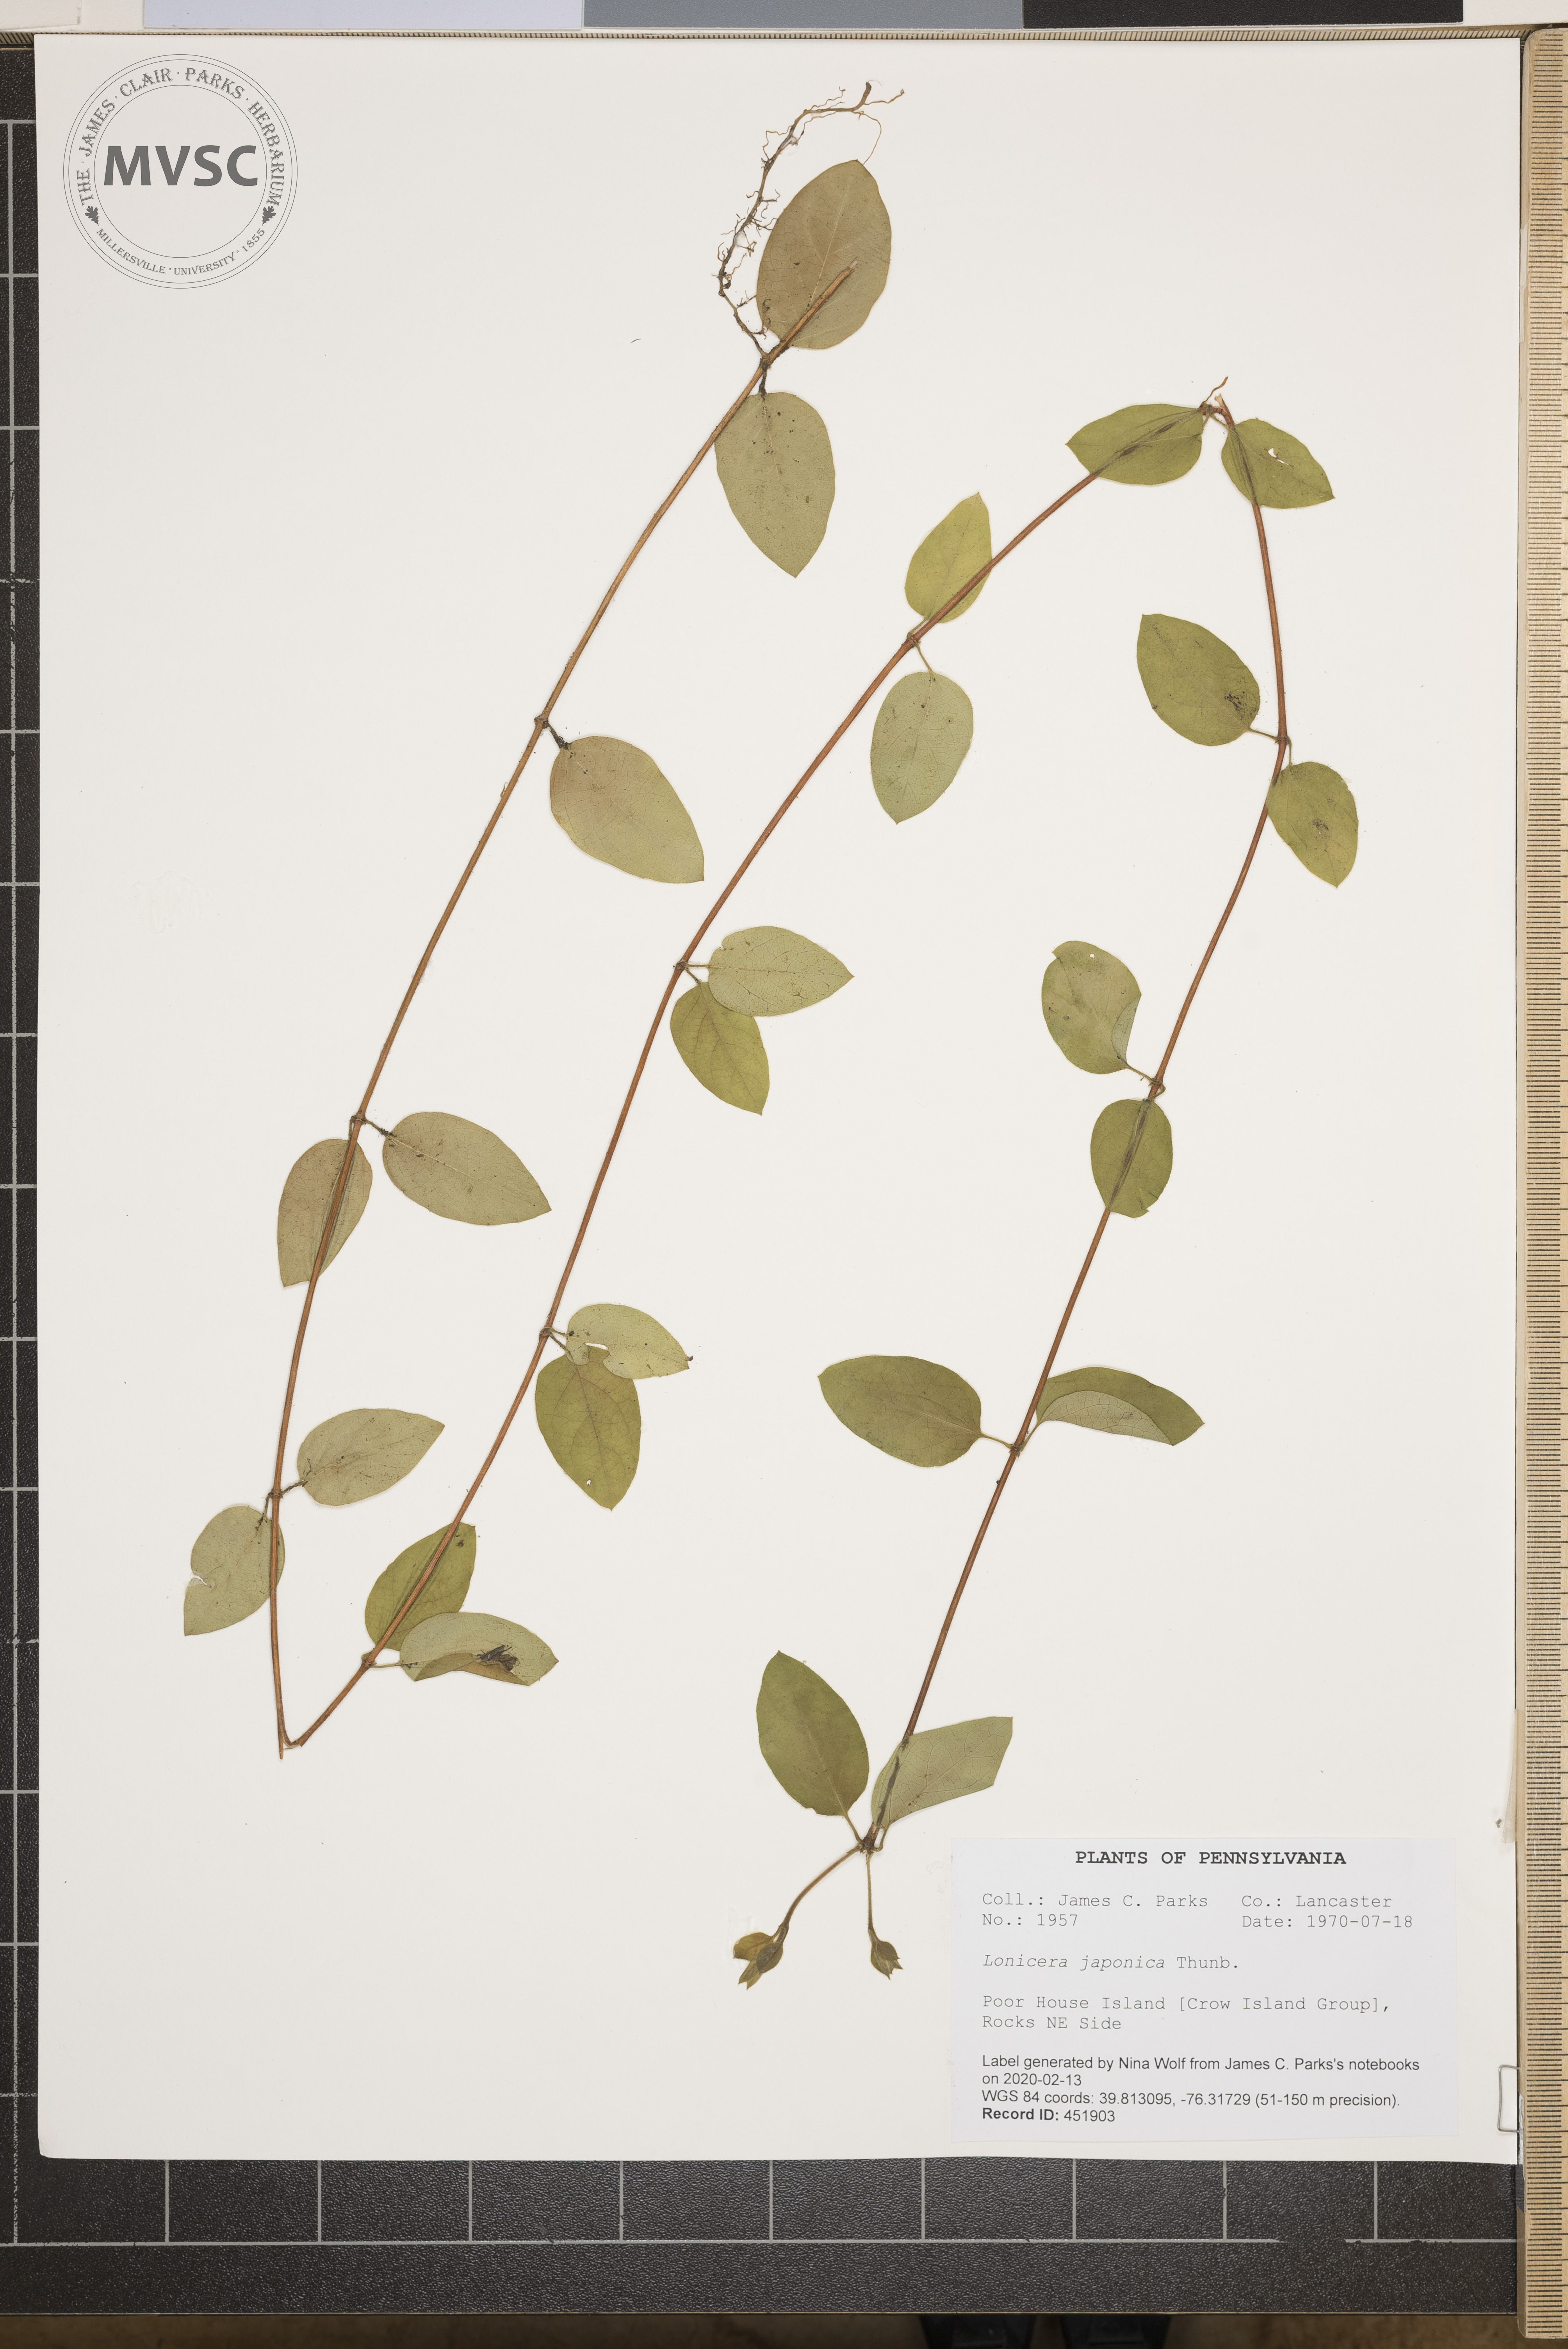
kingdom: Plantae
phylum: Tracheophyta
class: Magnoliopsida
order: Dipsacales
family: Caprifoliaceae
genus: Lonicera
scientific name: Lonicera japonica
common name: Japanese honeysuckle
